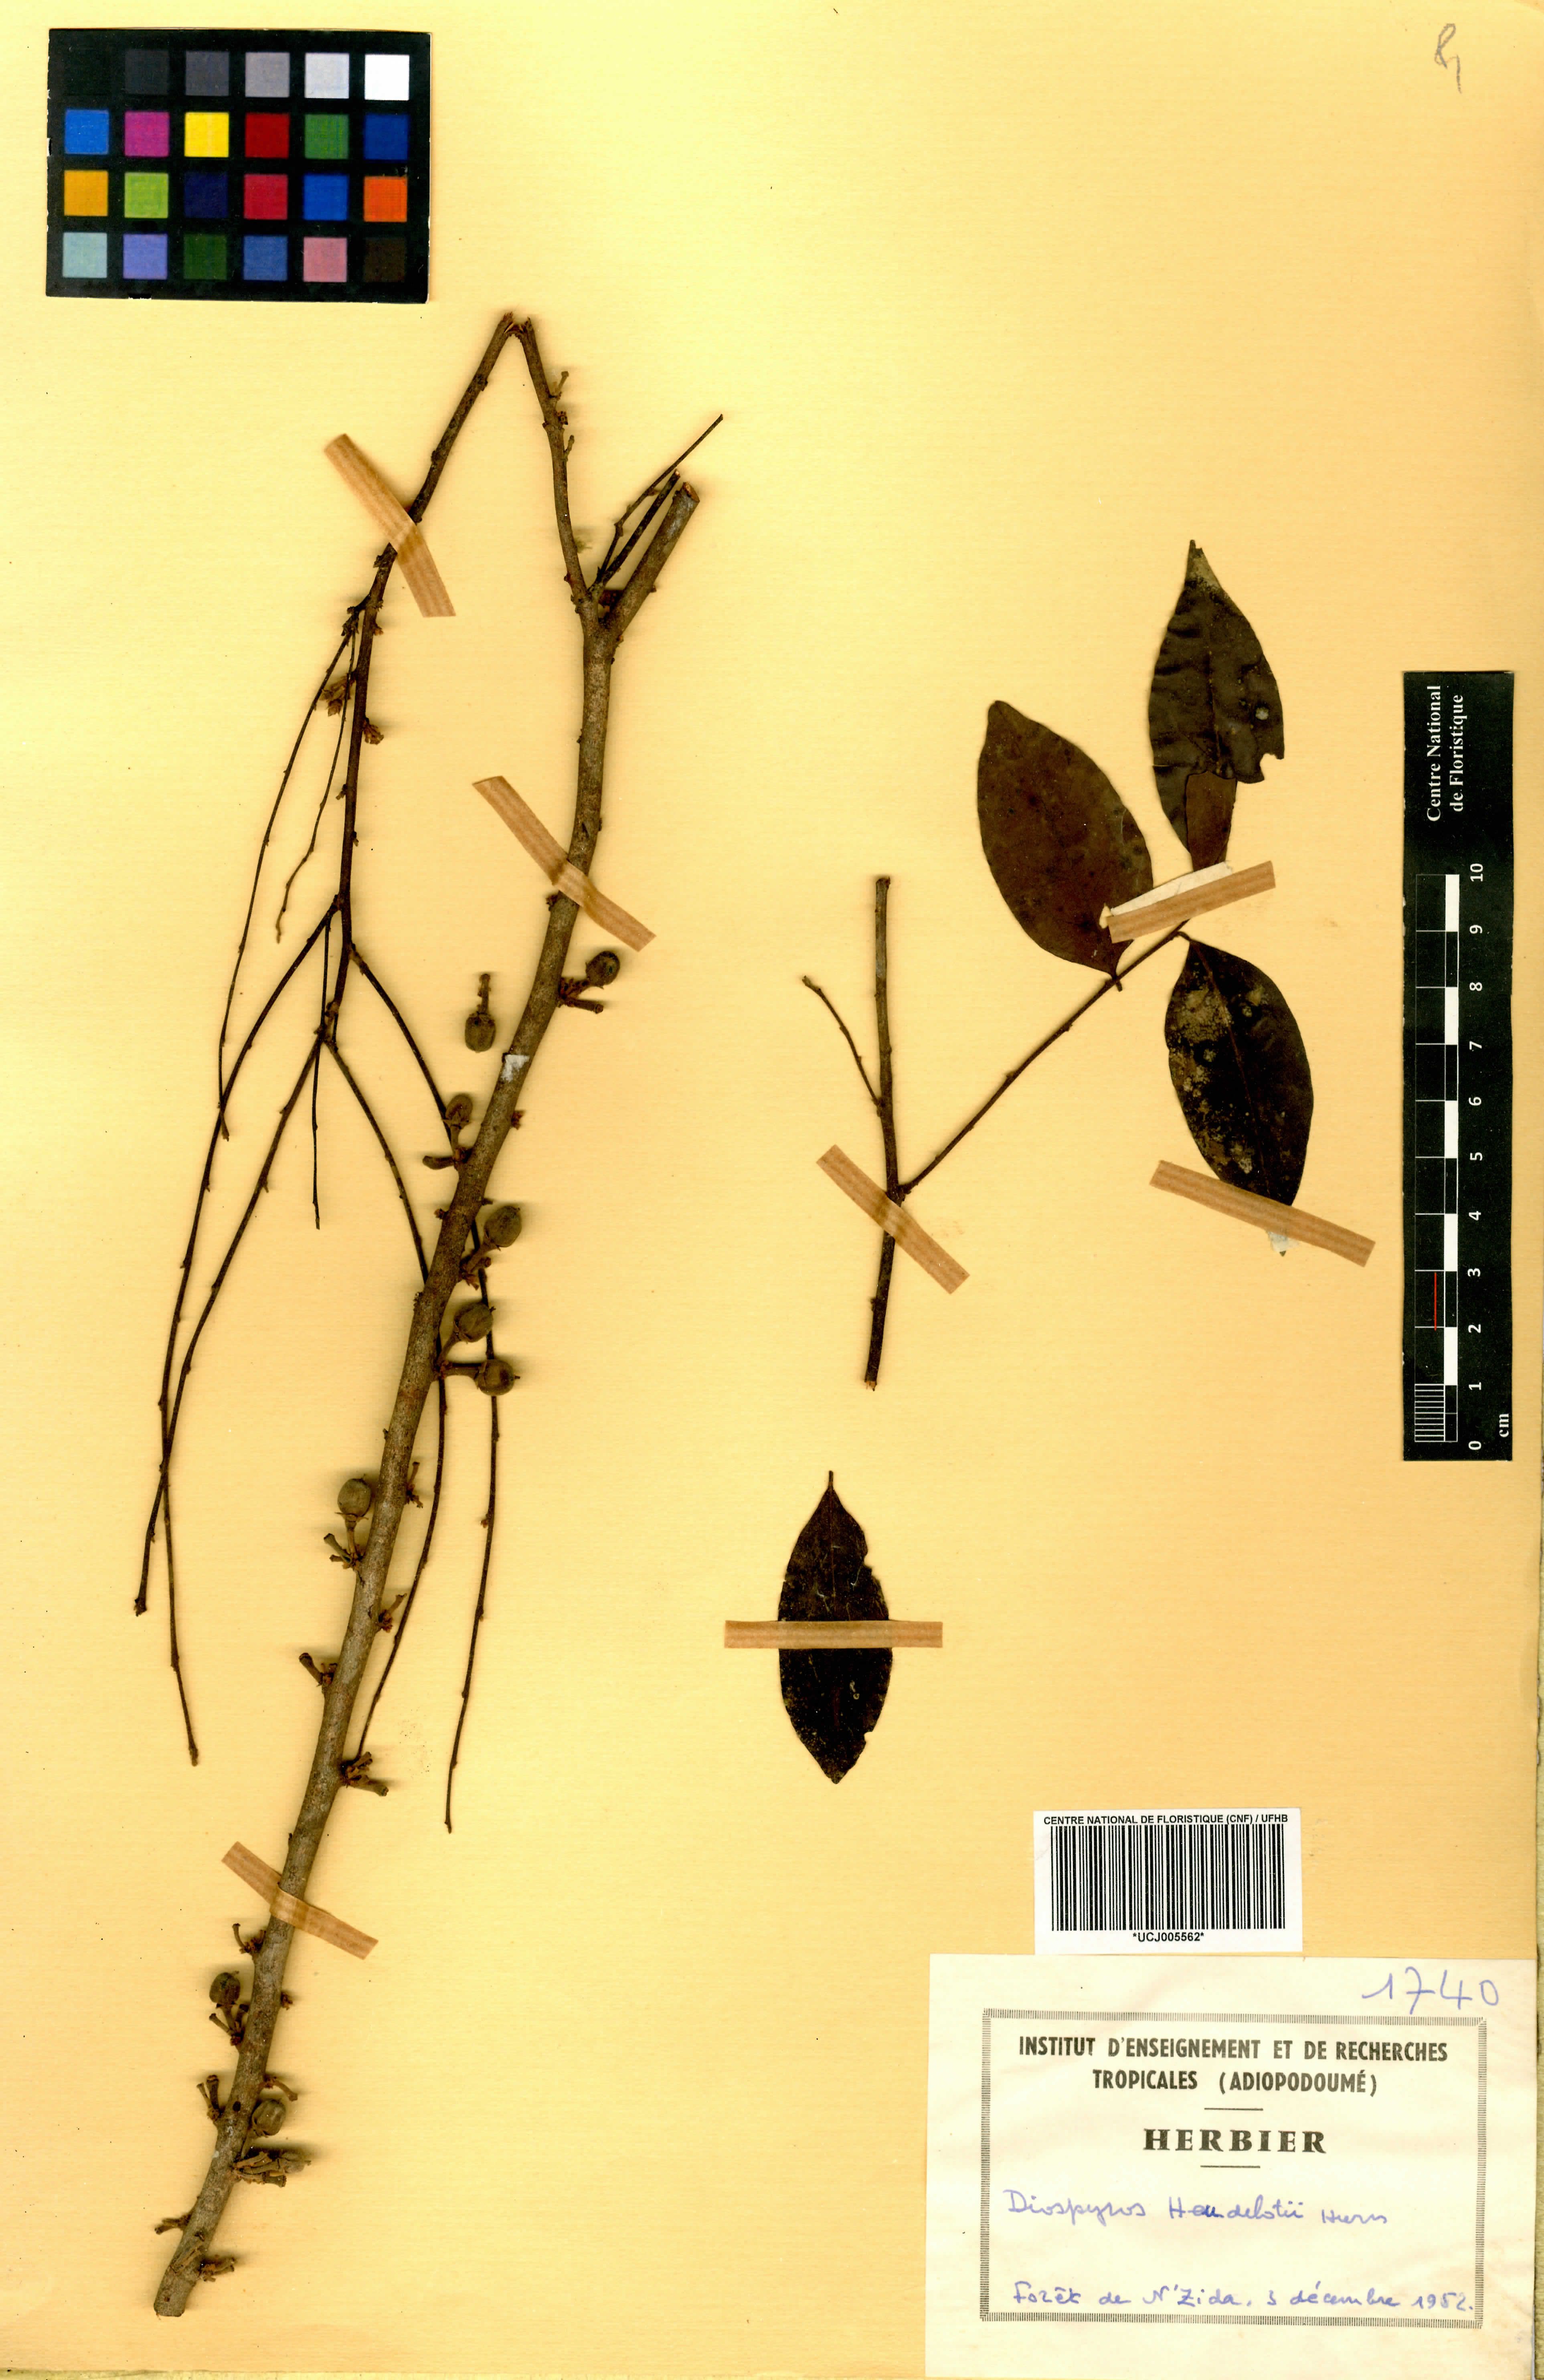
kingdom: Plantae
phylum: Tracheophyta
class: Magnoliopsida
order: Ericales
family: Ebenaceae
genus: Diospyros
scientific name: Diospyros heudelotii
